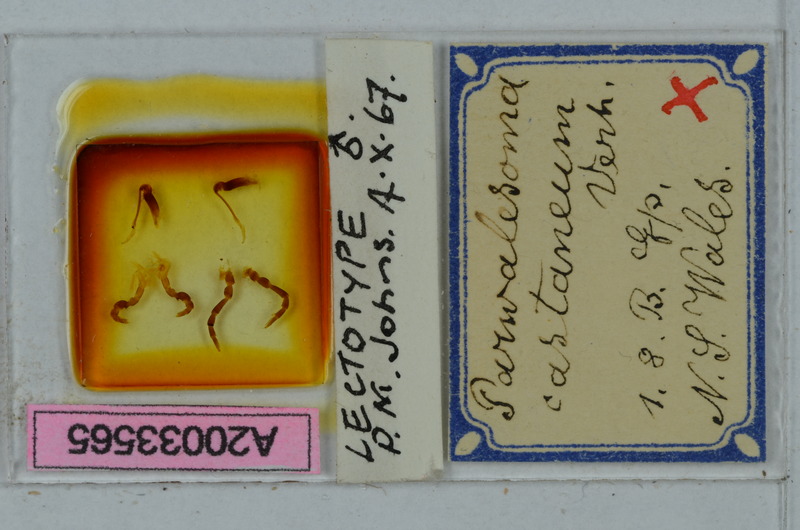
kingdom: Animalia
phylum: Arthropoda
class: Diplopoda
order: Polydesmida
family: Paradoxosomatidae
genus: Solaenodolichopus
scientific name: Solaenodolichopus walesius
